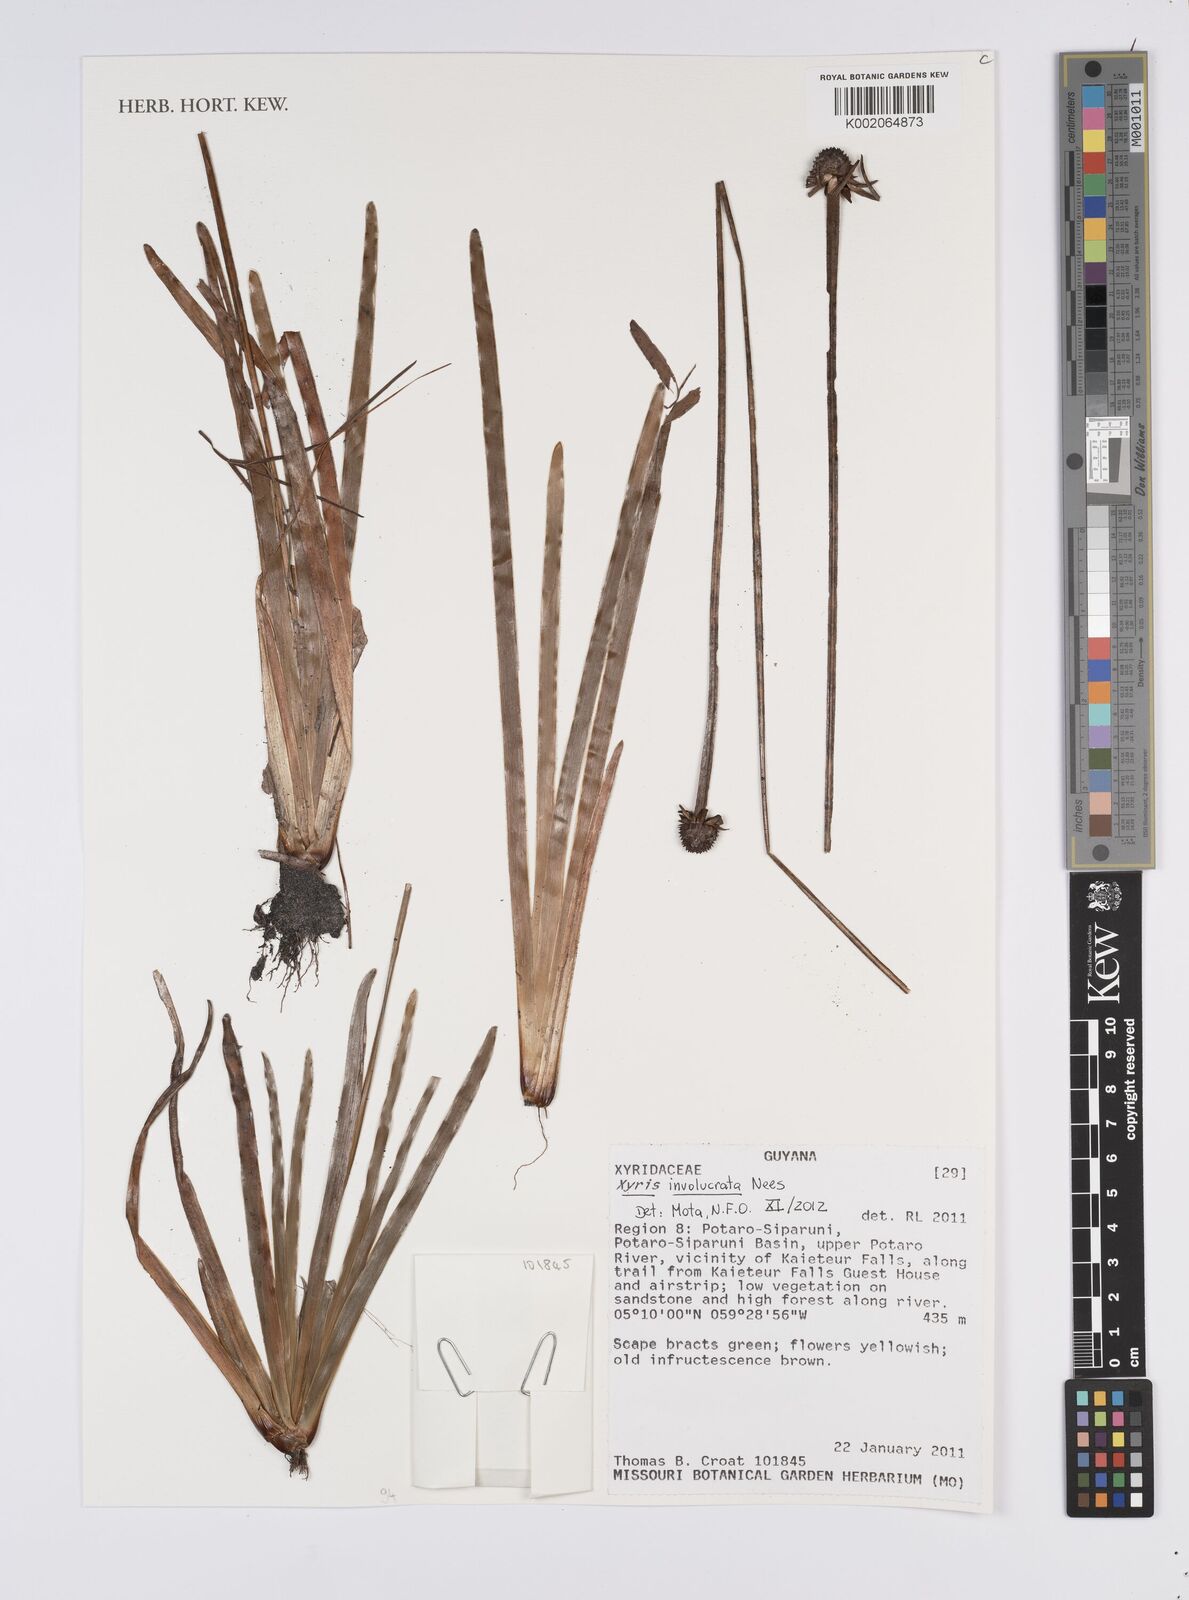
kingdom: Plantae
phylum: Tracheophyta
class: Liliopsida
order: Poales
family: Xyridaceae
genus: Xyris
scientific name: Xyris involucrata
